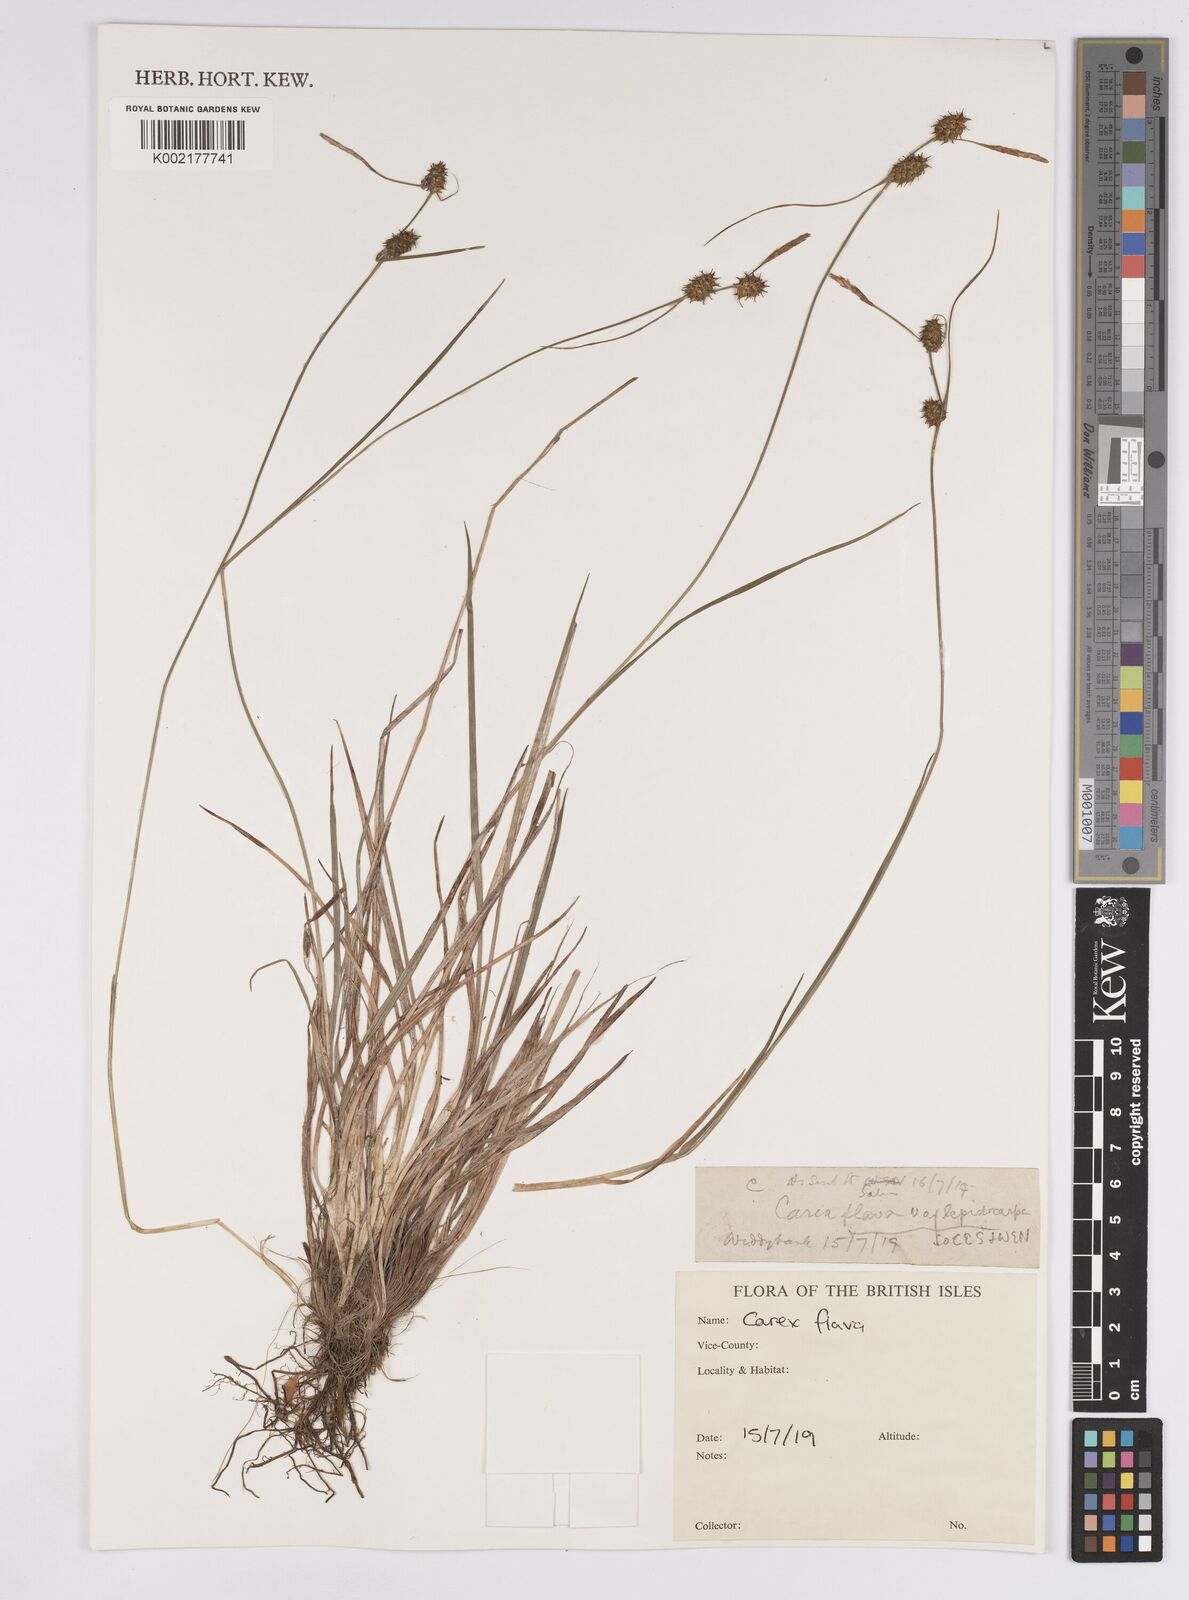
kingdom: Plantae
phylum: Tracheophyta
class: Liliopsida
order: Poales
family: Cyperaceae
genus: Carex
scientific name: Carex flava
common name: Large yellow-sedge
